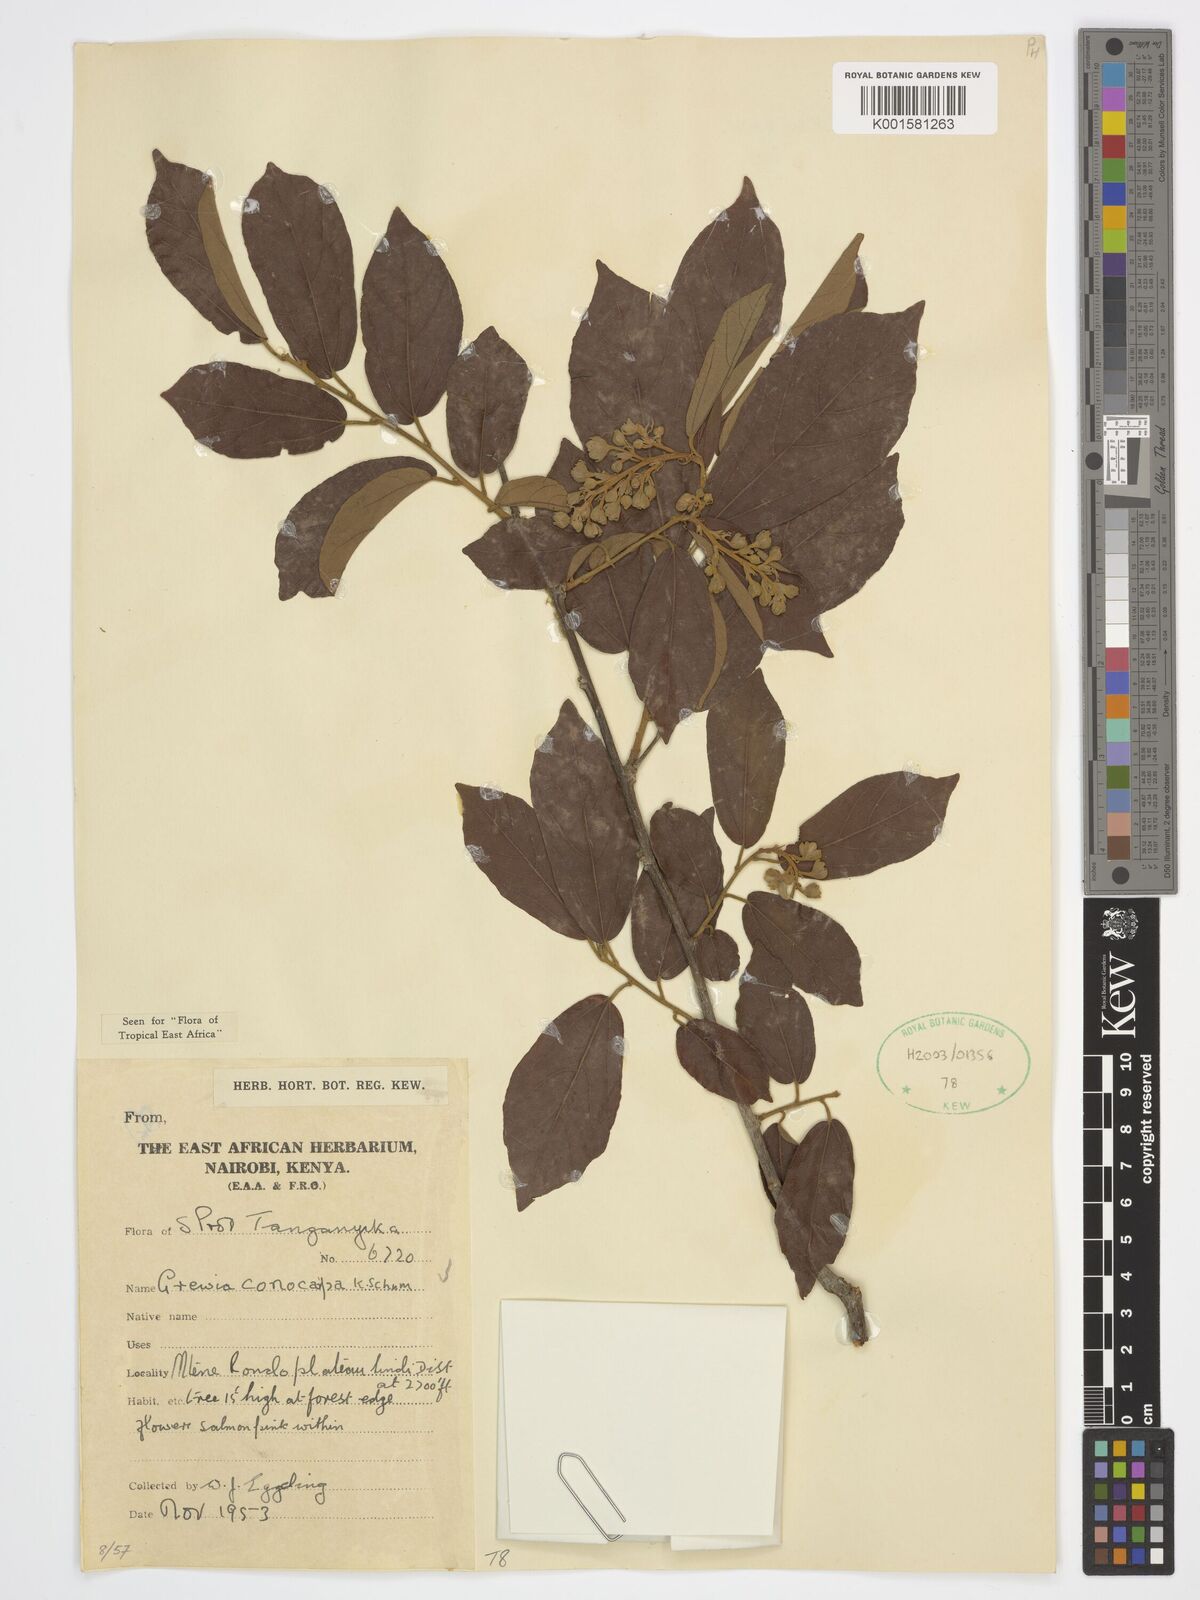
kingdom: Plantae
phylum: Tracheophyta
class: Magnoliopsida
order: Malvales
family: Malvaceae
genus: Microcos
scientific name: Microcos conocarpa
